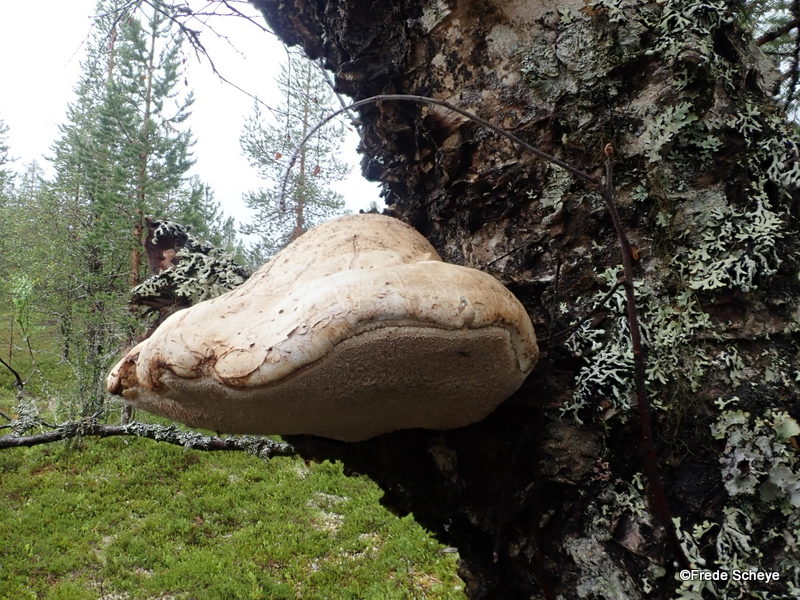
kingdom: Fungi
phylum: Basidiomycota
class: Agaricomycetes
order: Polyporales
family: Fomitopsidaceae
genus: Fomitopsis
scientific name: Fomitopsis betulina
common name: birkeporesvamp
